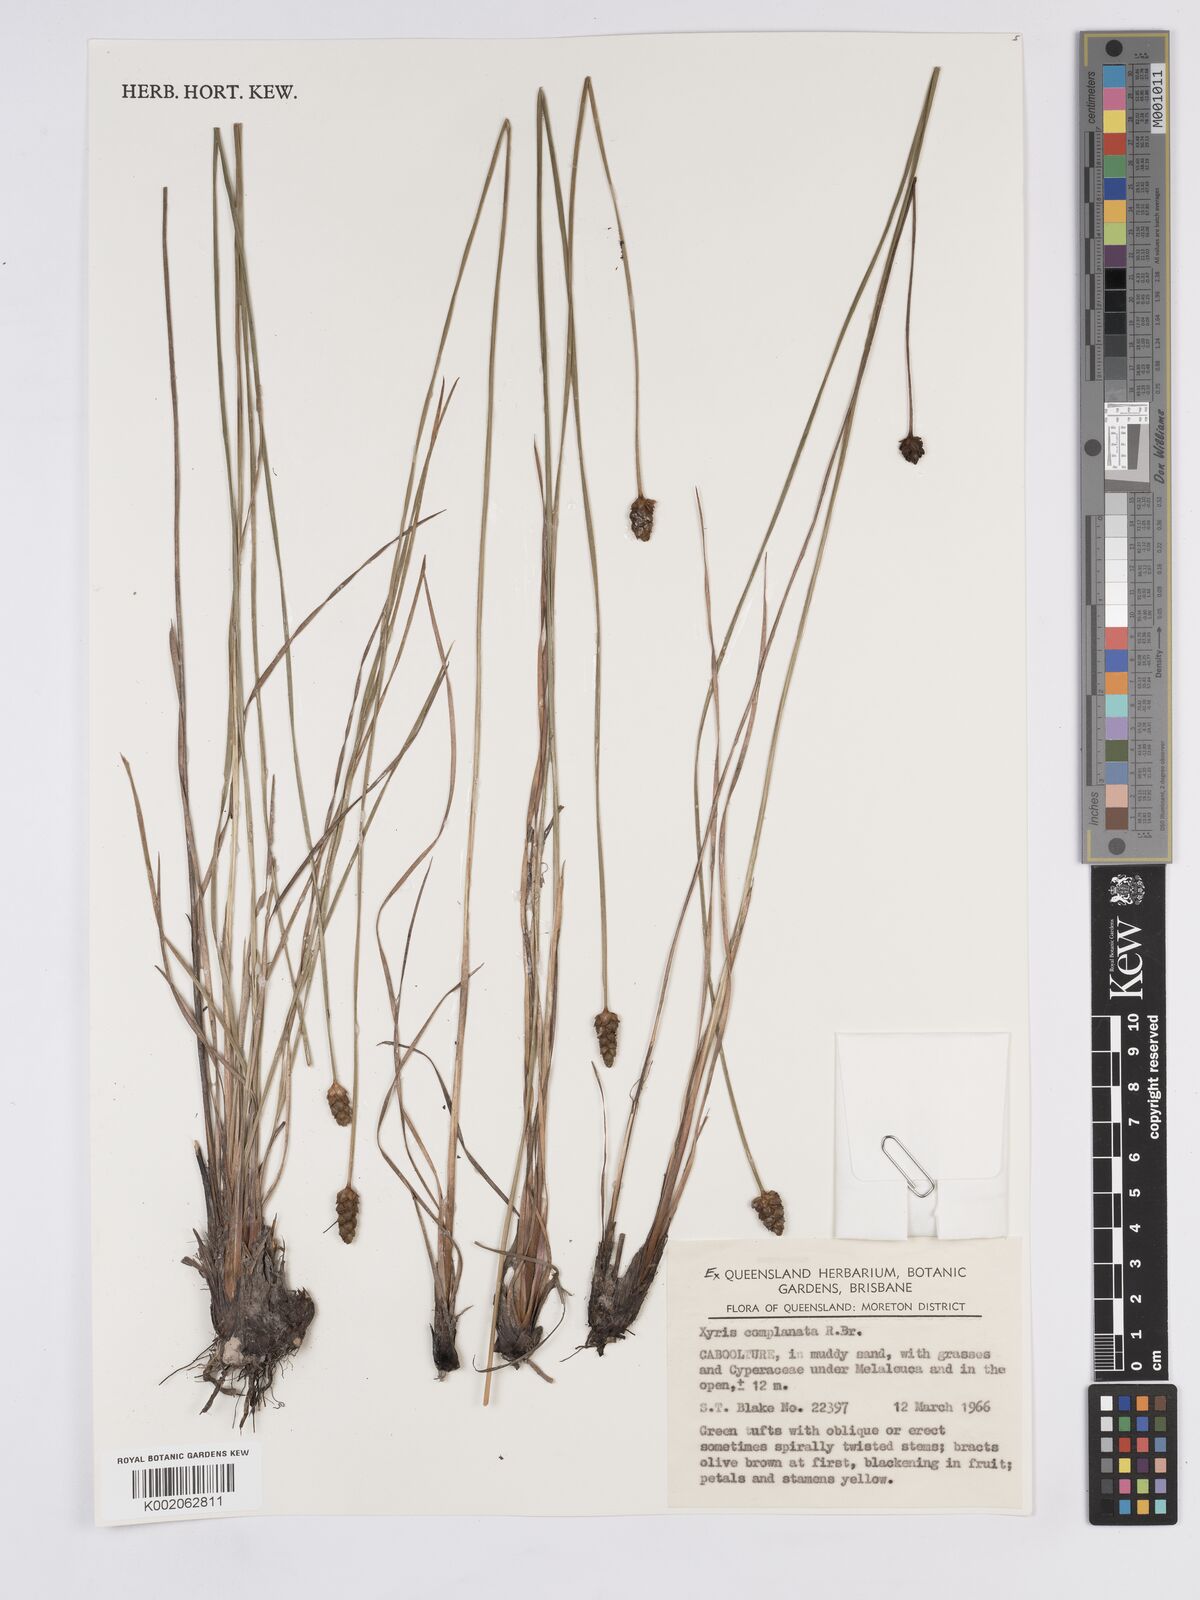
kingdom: Plantae
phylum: Tracheophyta
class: Liliopsida
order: Poales
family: Xyridaceae
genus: Xyris
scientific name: Xyris complanata
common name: Hawai'i yelloweyed grass
